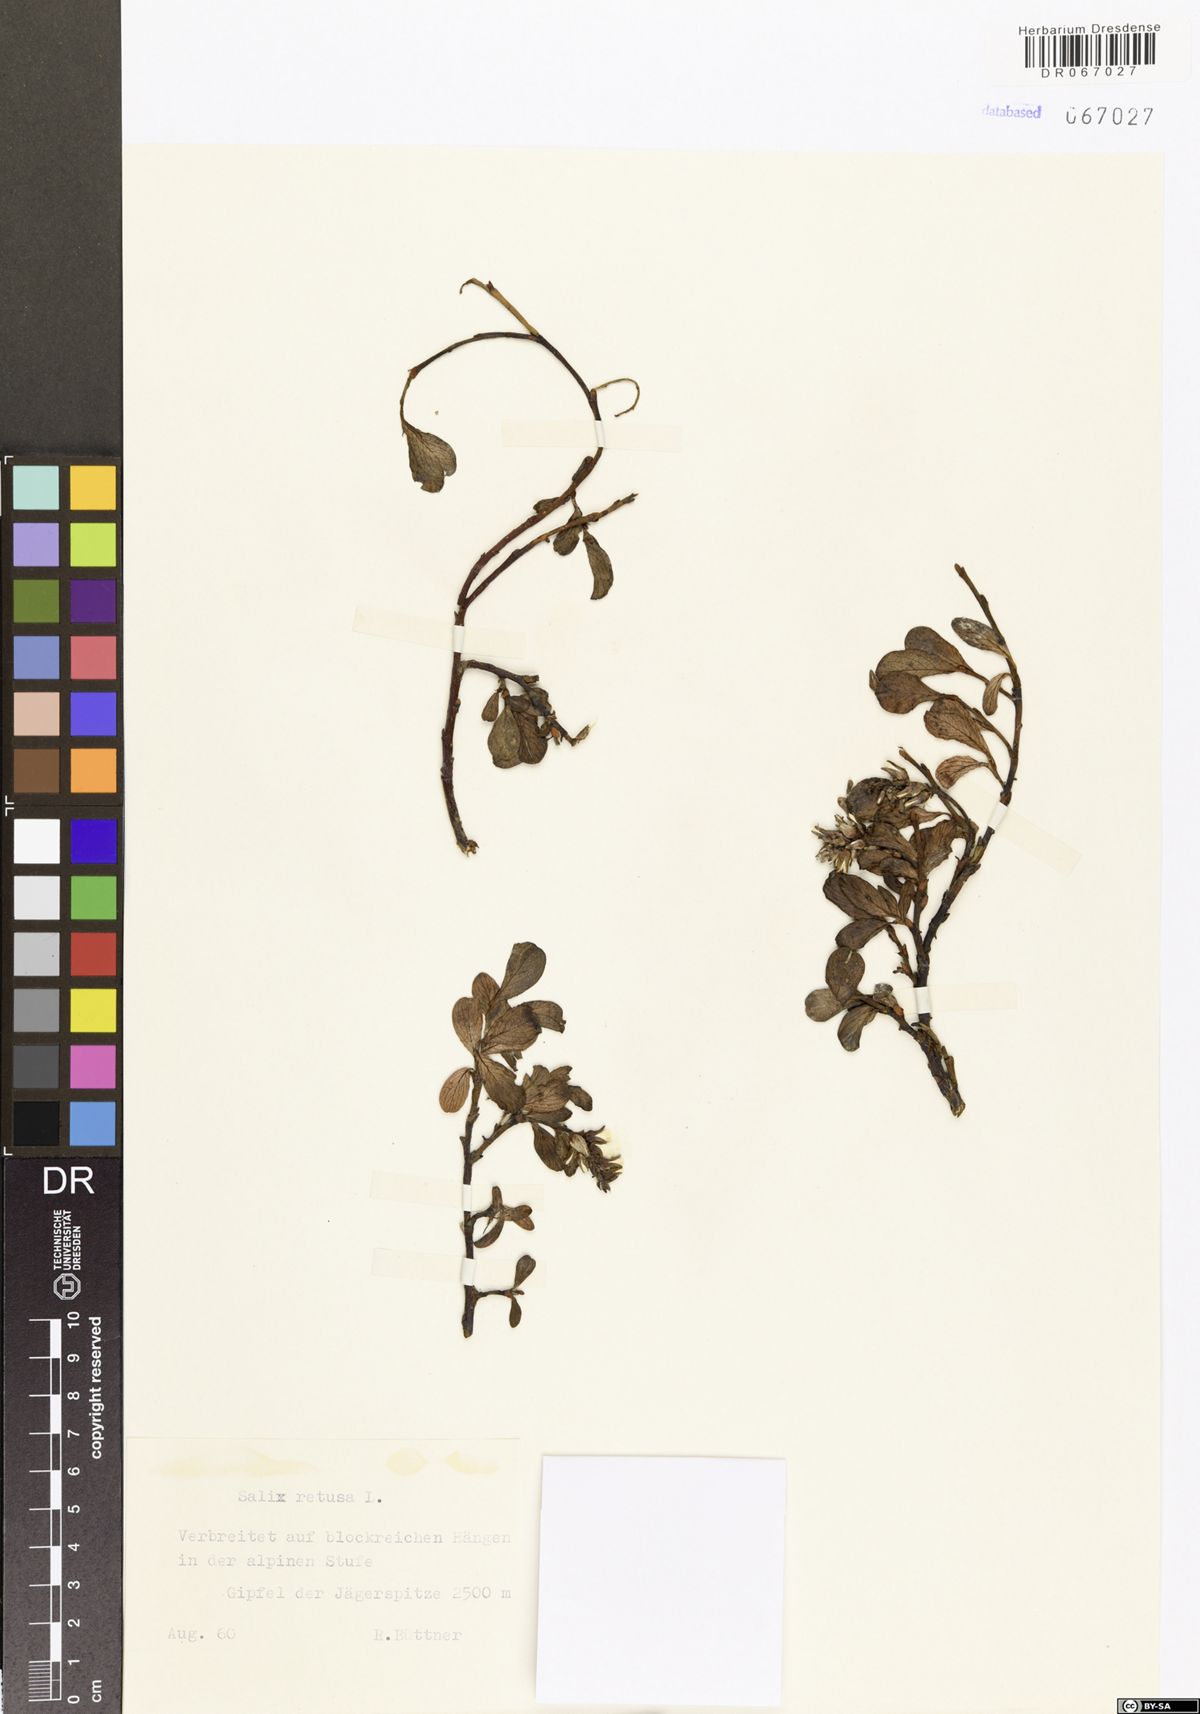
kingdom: Plantae
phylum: Tracheophyta
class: Magnoliopsida
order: Malpighiales
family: Salicaceae
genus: Salix
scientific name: Salix retusa
